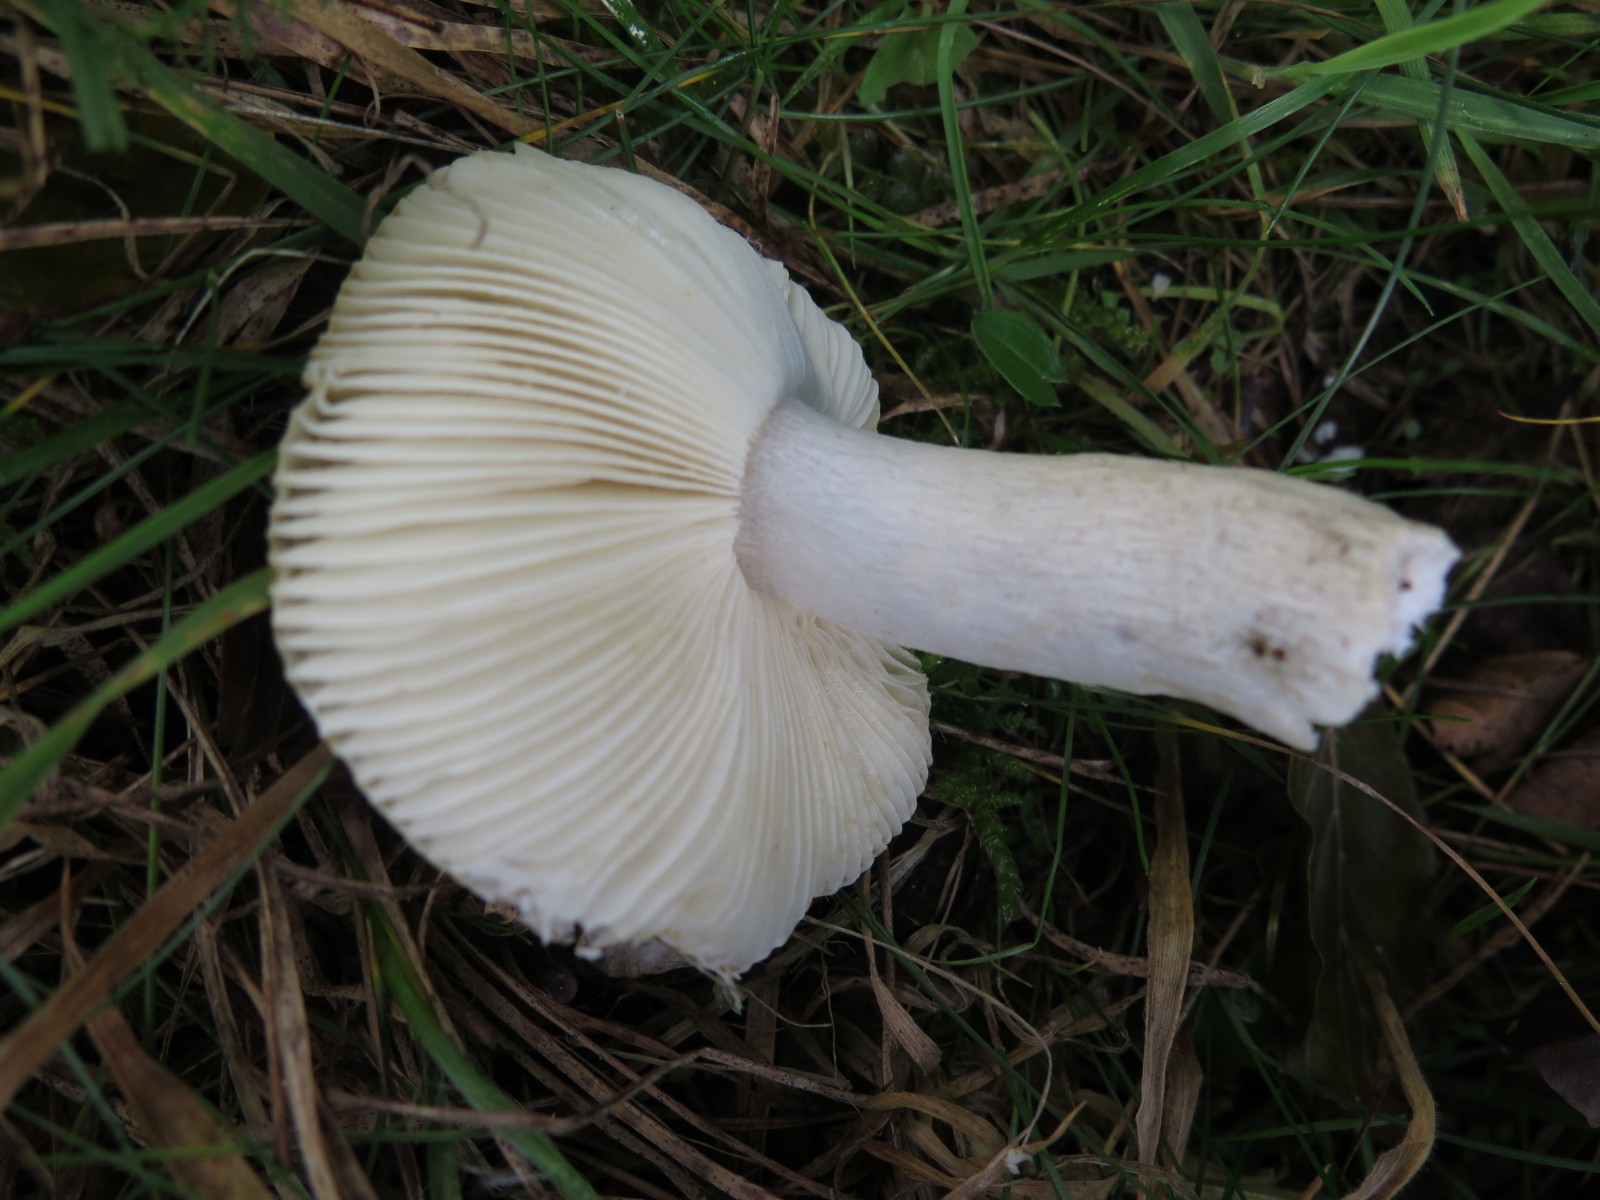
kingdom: Fungi
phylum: Basidiomycota
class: Agaricomycetes
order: Russulales
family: Russulaceae
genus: Russula
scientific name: Russula
